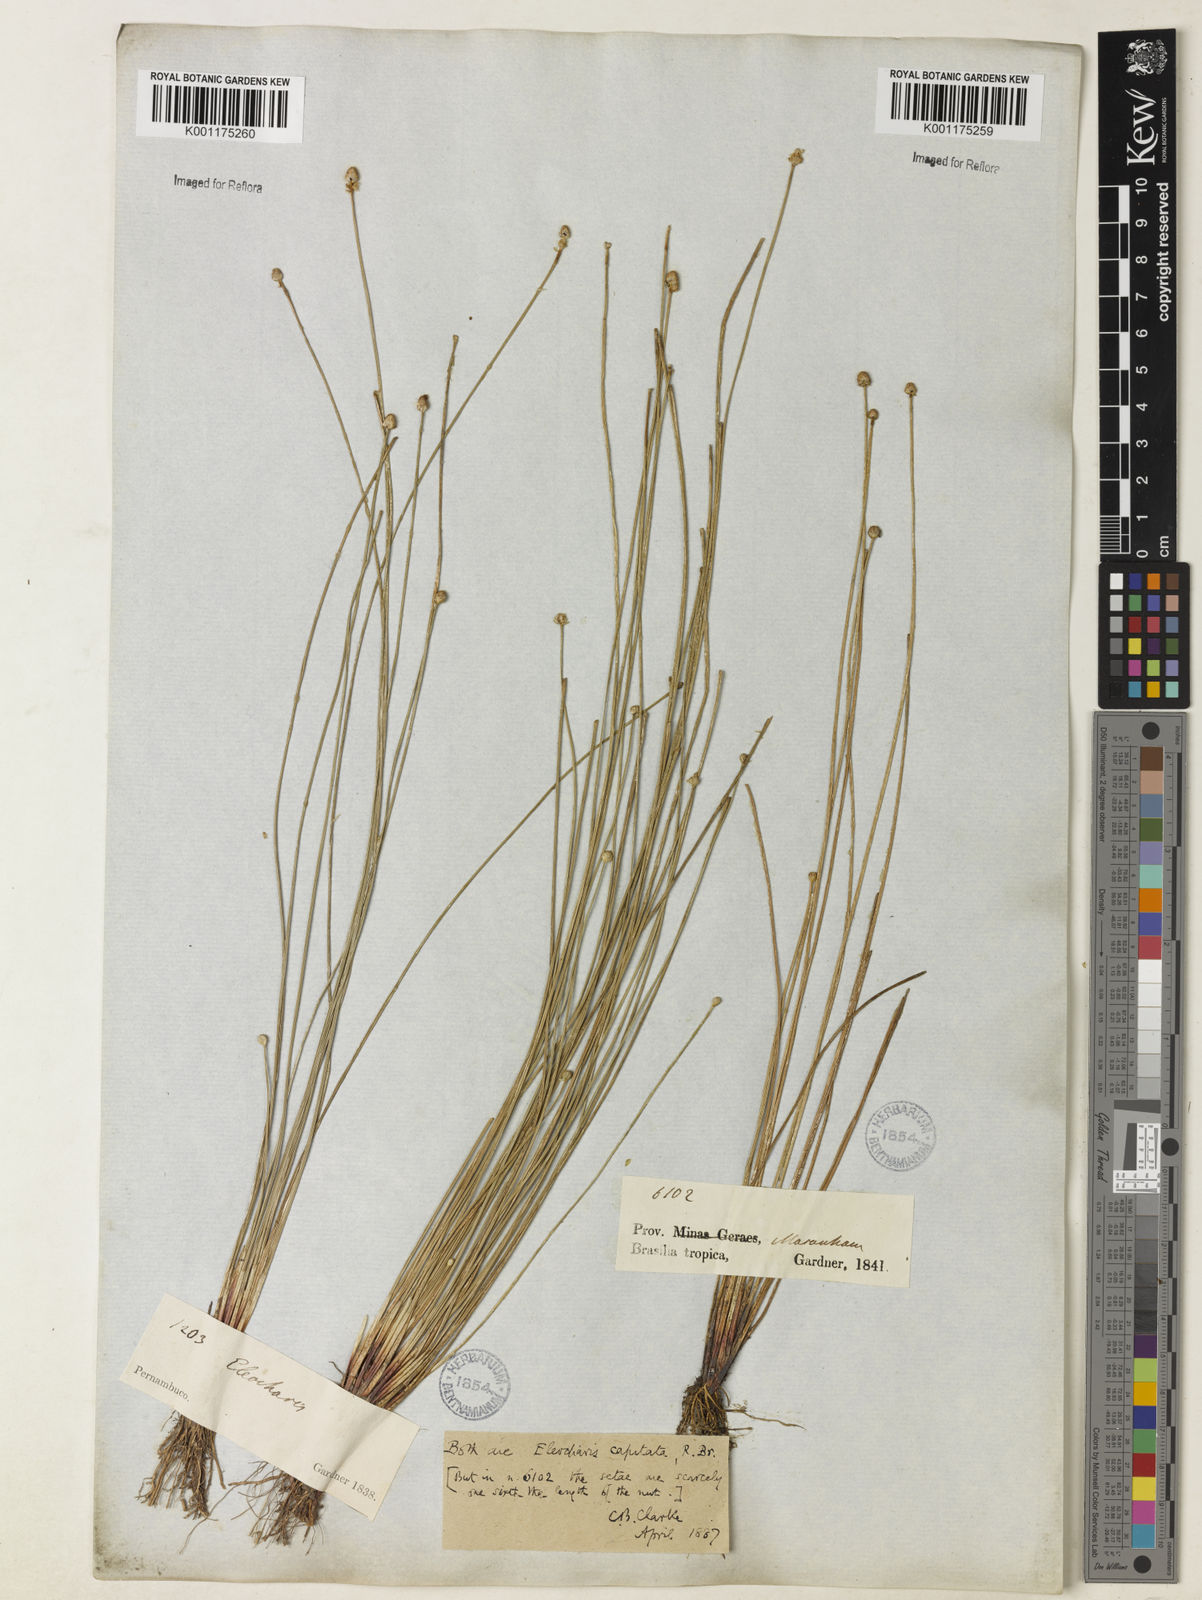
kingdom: Plantae
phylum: Tracheophyta
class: Liliopsida
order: Poales
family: Cyperaceae
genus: Eleocharis
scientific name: Eleocharis geniculata
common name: Canada spikesedge
